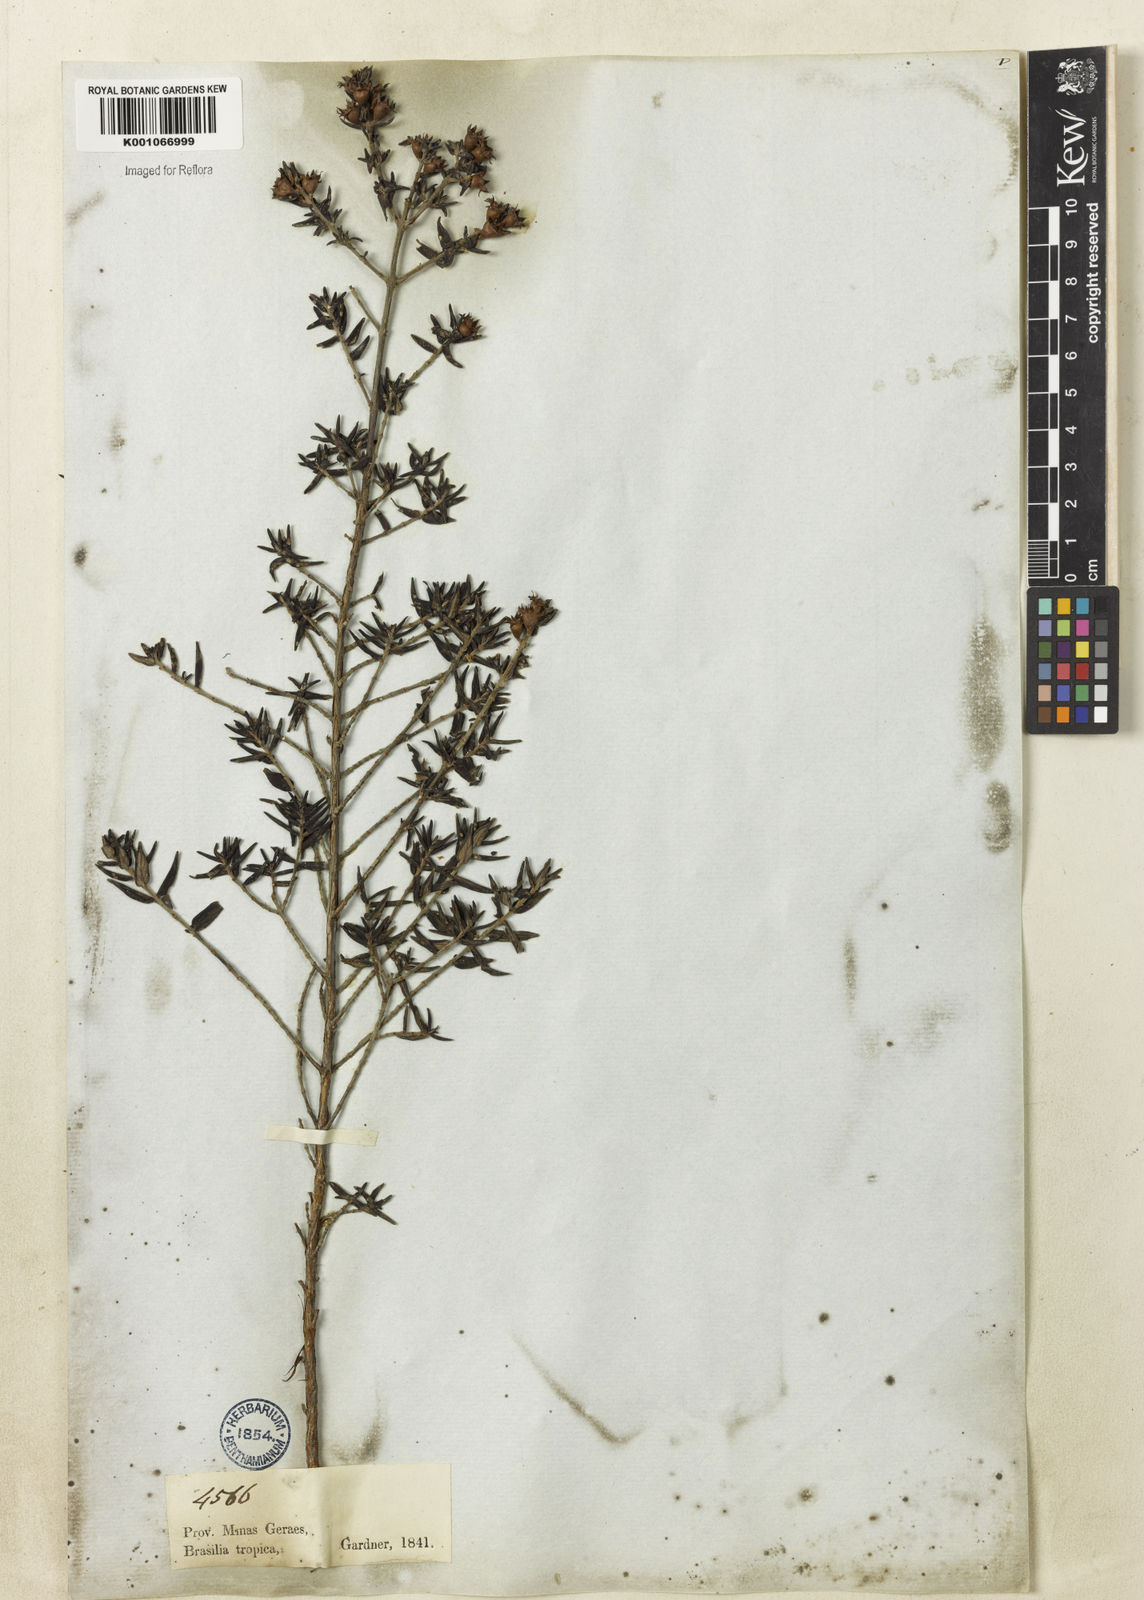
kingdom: Plantae
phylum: Tracheophyta
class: Magnoliopsida
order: Myrtales
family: Lythraceae
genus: Diplusodon
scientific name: Diplusodon helianthemifolius
